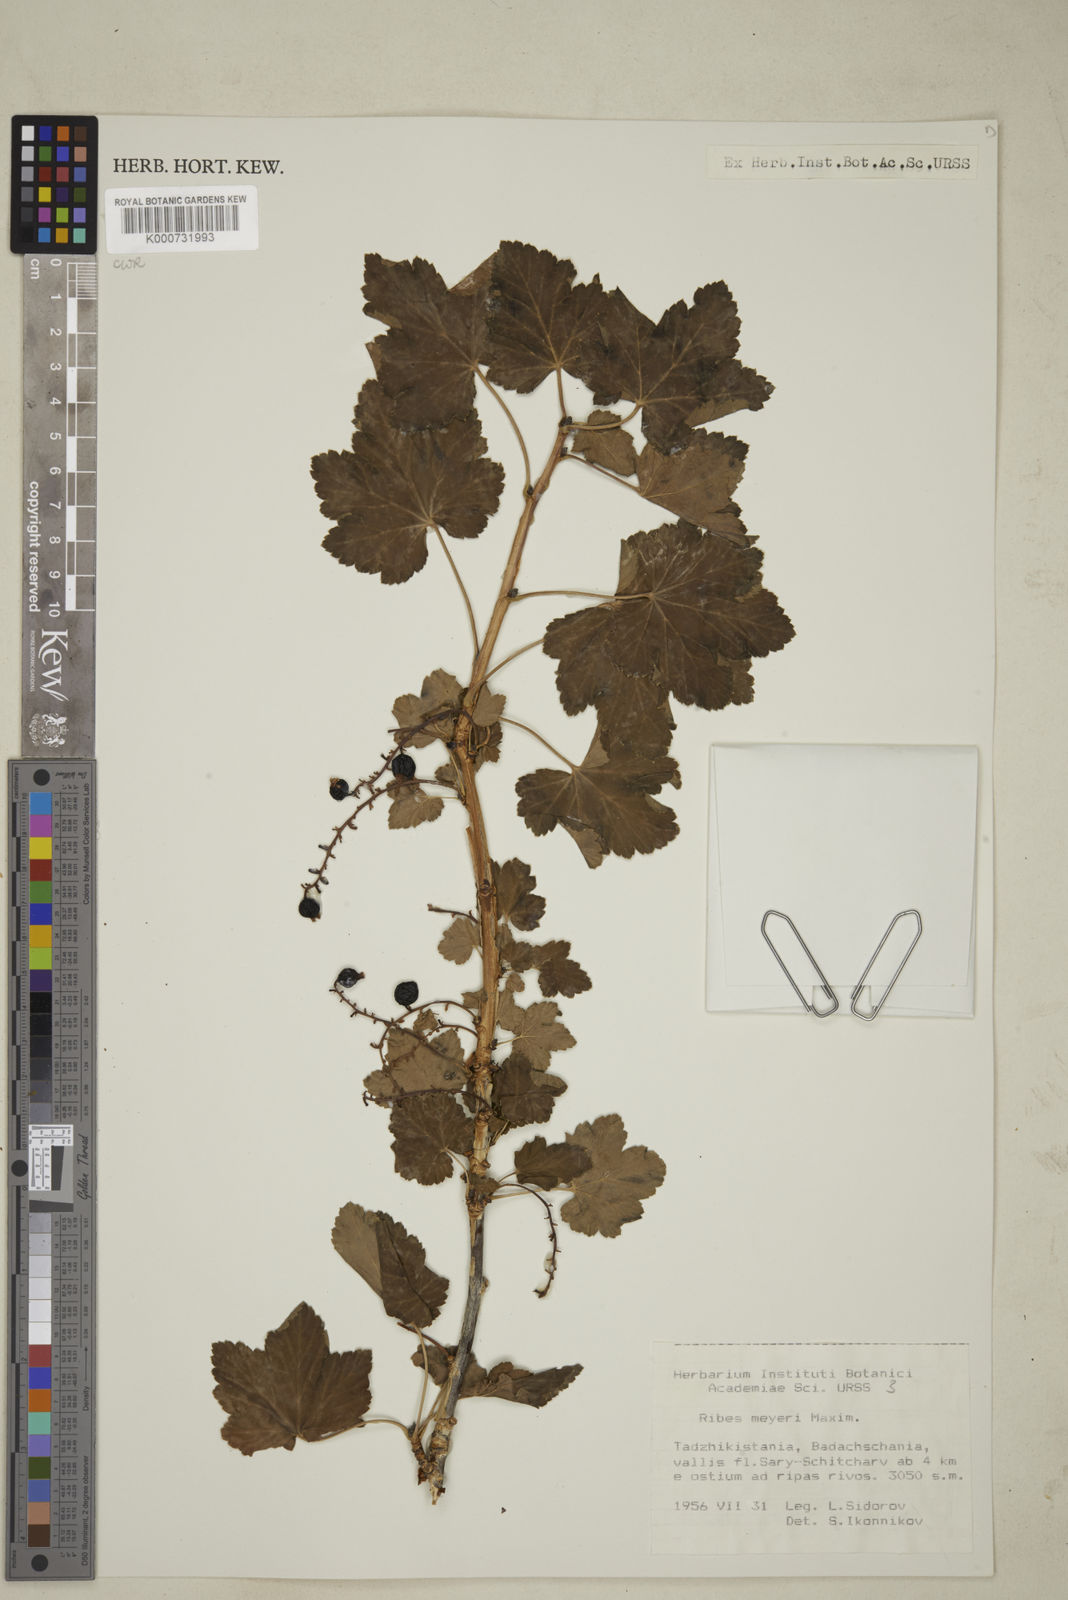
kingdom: Plantae
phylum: Tracheophyta
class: Magnoliopsida
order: Saxifragales
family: Grossulariaceae
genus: Ribes
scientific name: Ribes meyeri
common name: Meyer's currant
